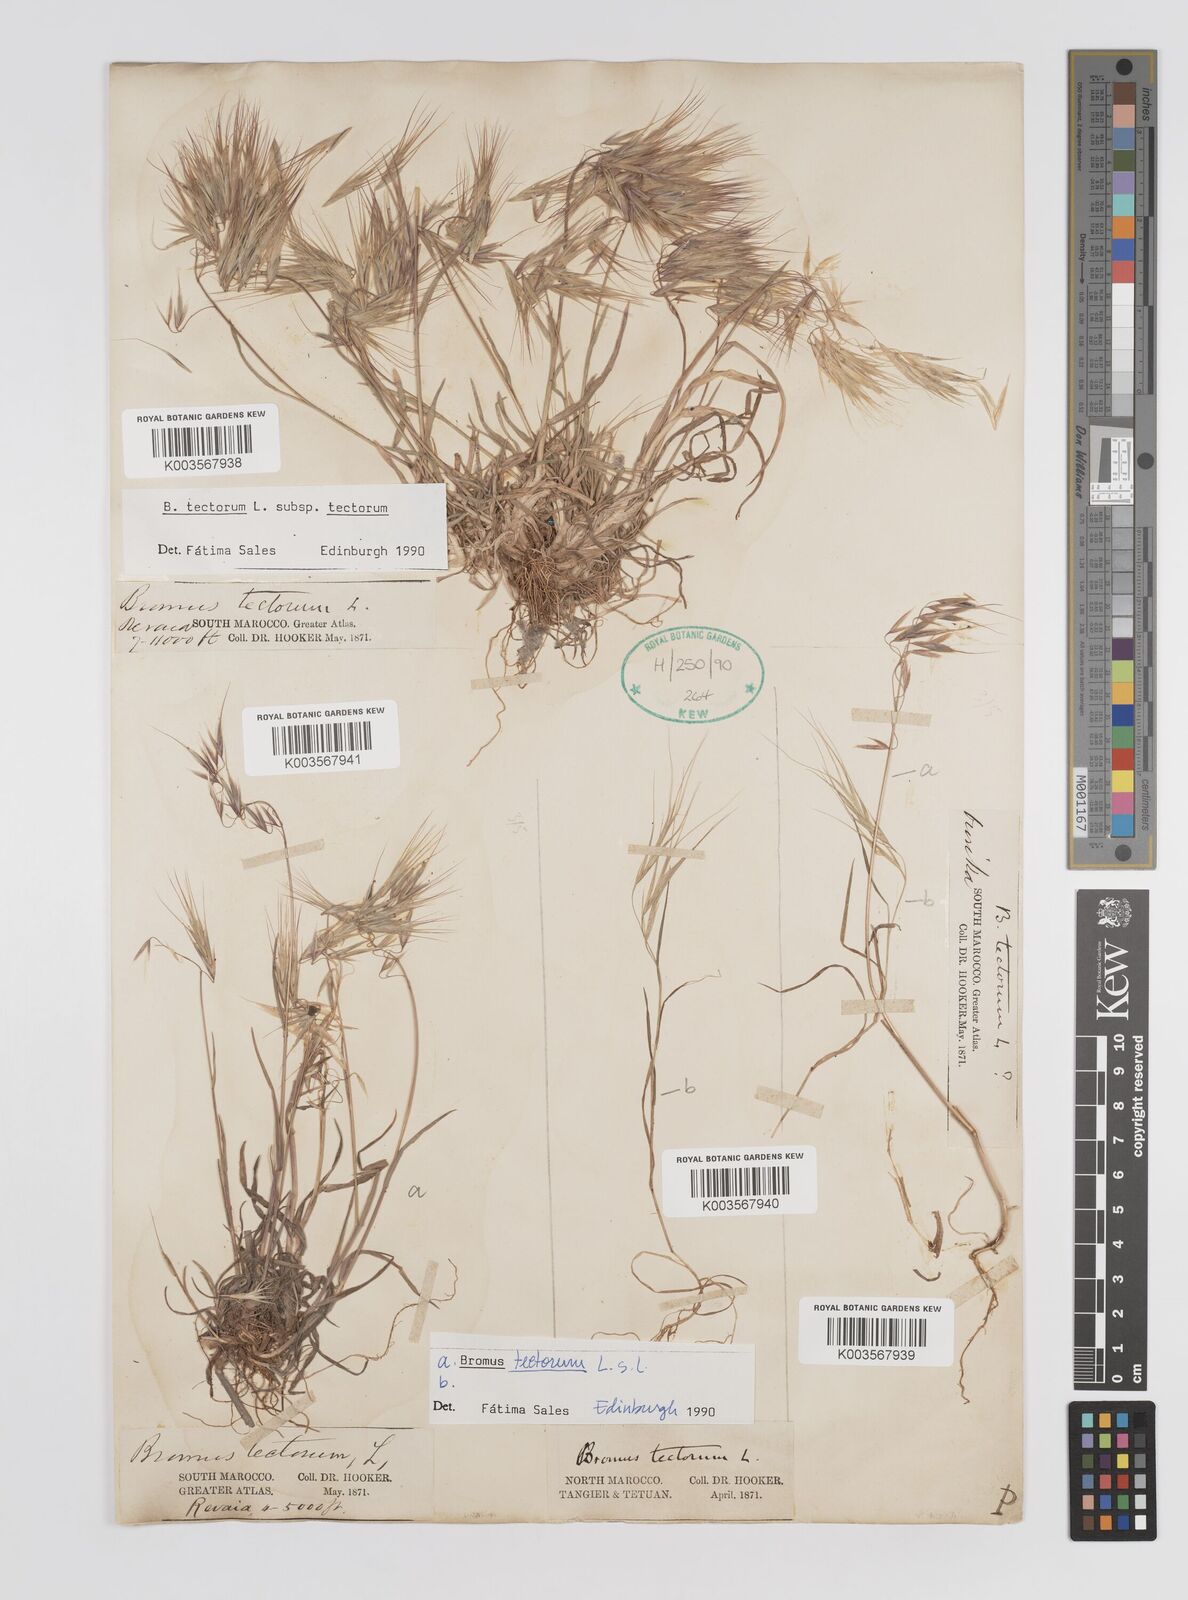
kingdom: Plantae
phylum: Tracheophyta
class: Liliopsida
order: Poales
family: Poaceae
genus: Bromus
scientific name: Bromus tectorum
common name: Cheatgrass
